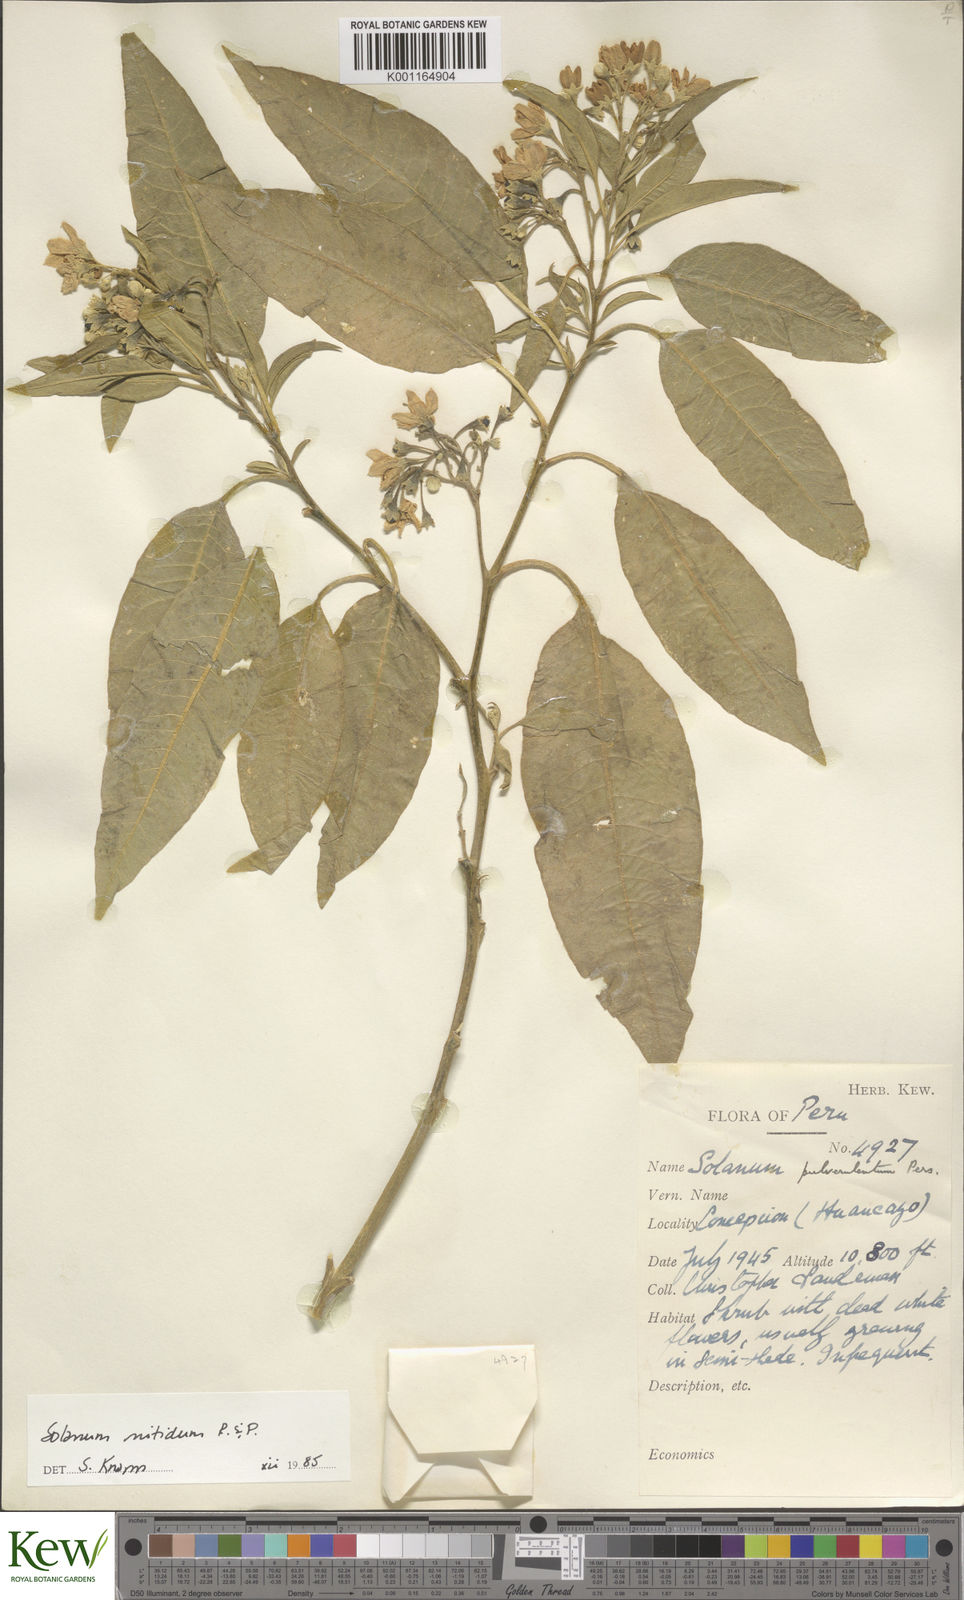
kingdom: Plantae
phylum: Tracheophyta
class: Magnoliopsida
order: Solanales
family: Solanaceae
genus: Solanum
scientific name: Solanum nitidum
